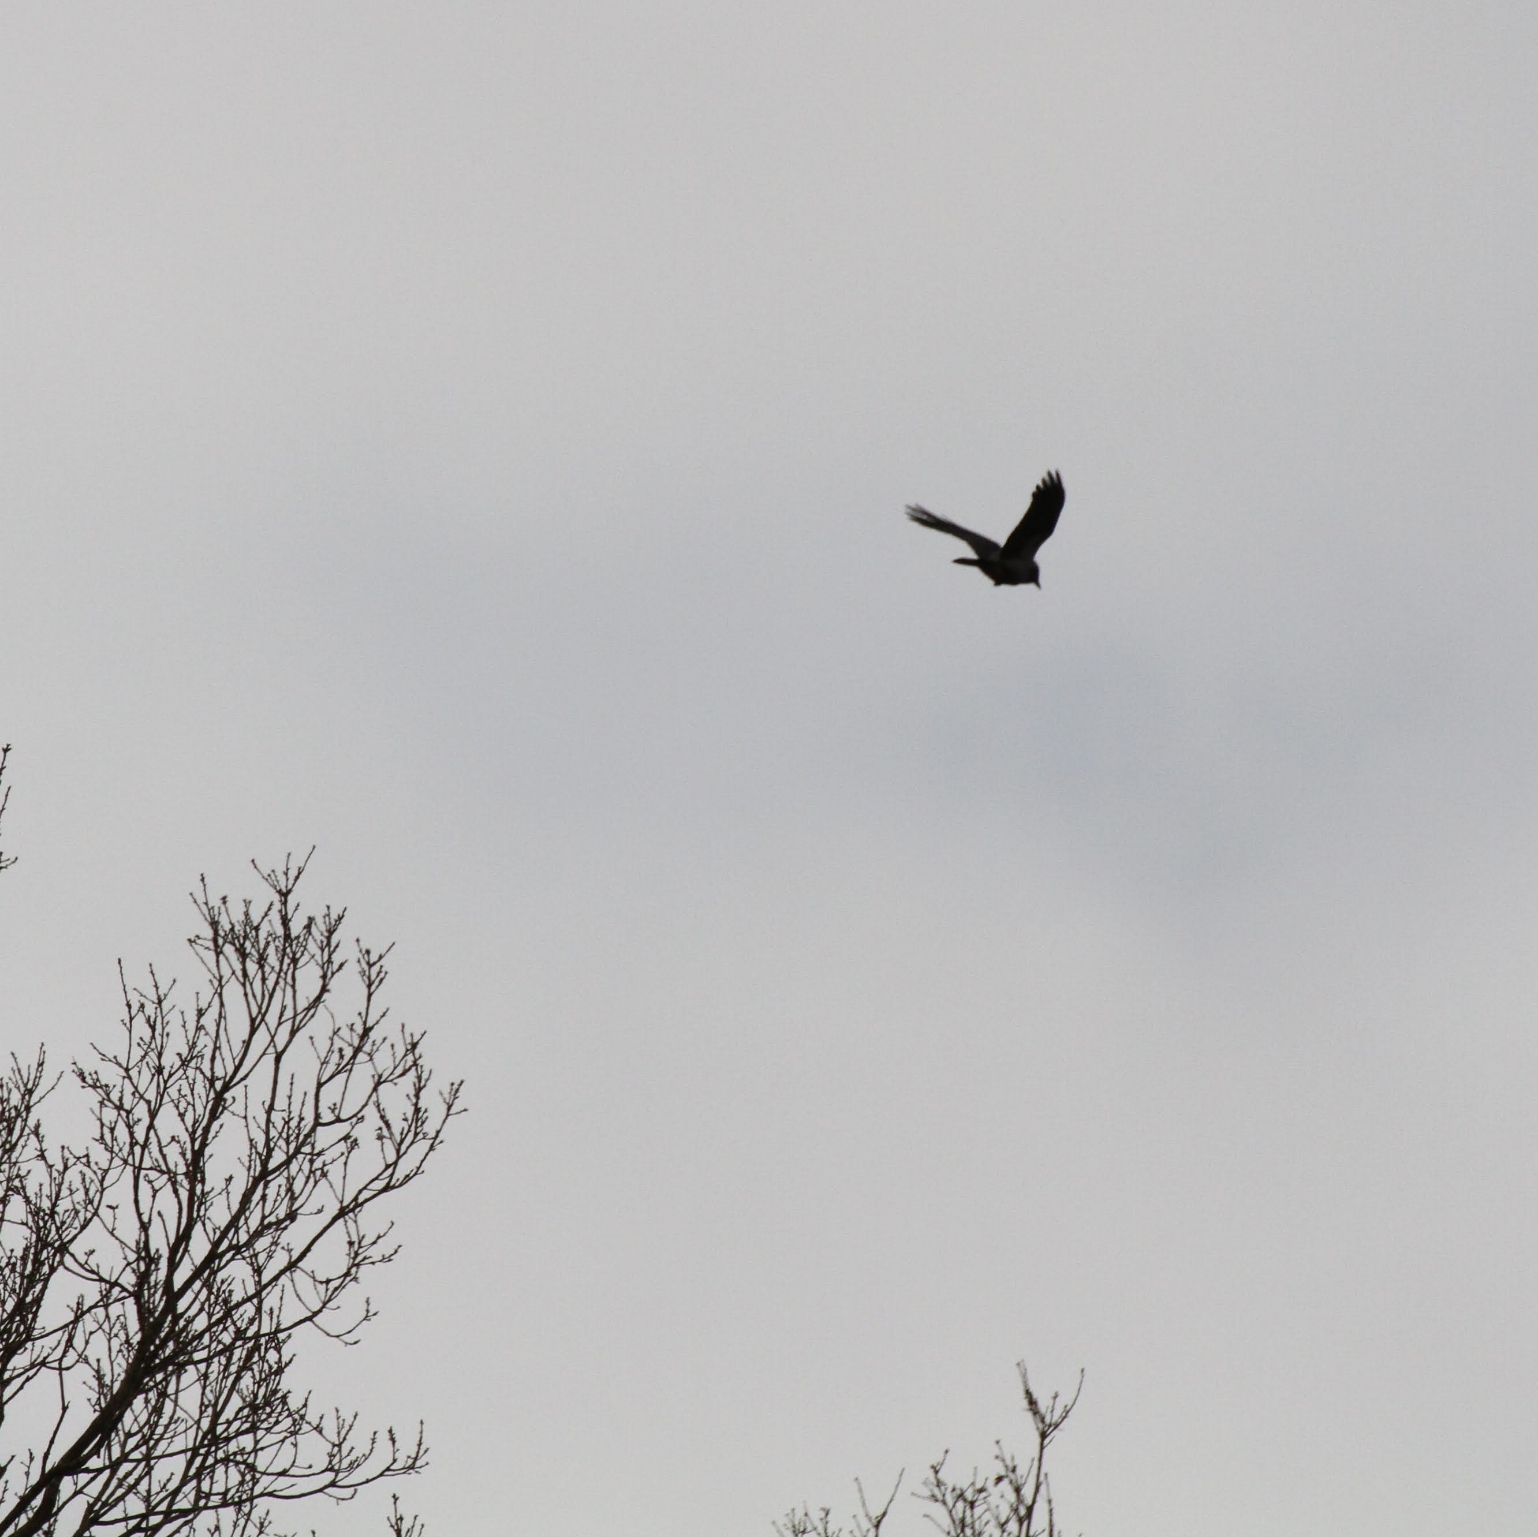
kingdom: Animalia
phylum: Chordata
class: Aves
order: Passeriformes
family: Corvidae
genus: Corvus
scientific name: Corvus corax
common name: Ravn
